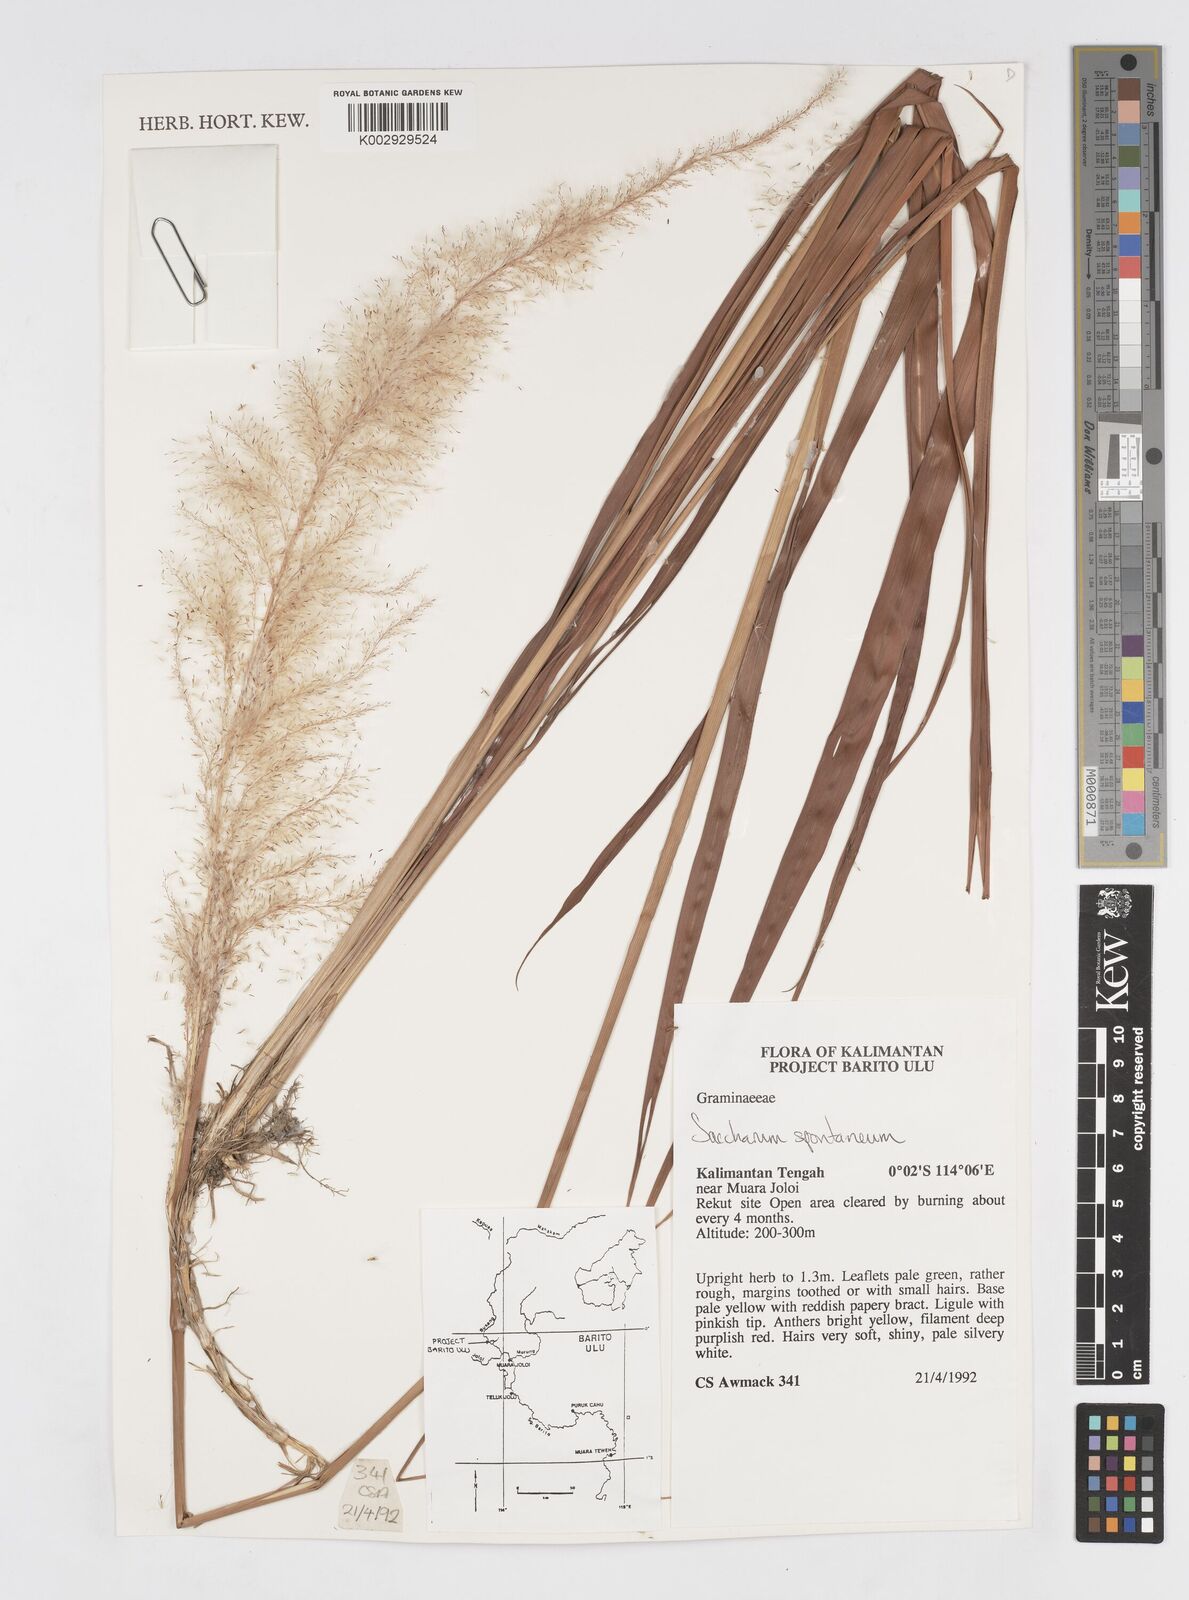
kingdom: Plantae
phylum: Tracheophyta
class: Liliopsida
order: Poales
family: Poaceae
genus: Saccharum
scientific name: Saccharum spontaneum
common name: Wild sugarcane
